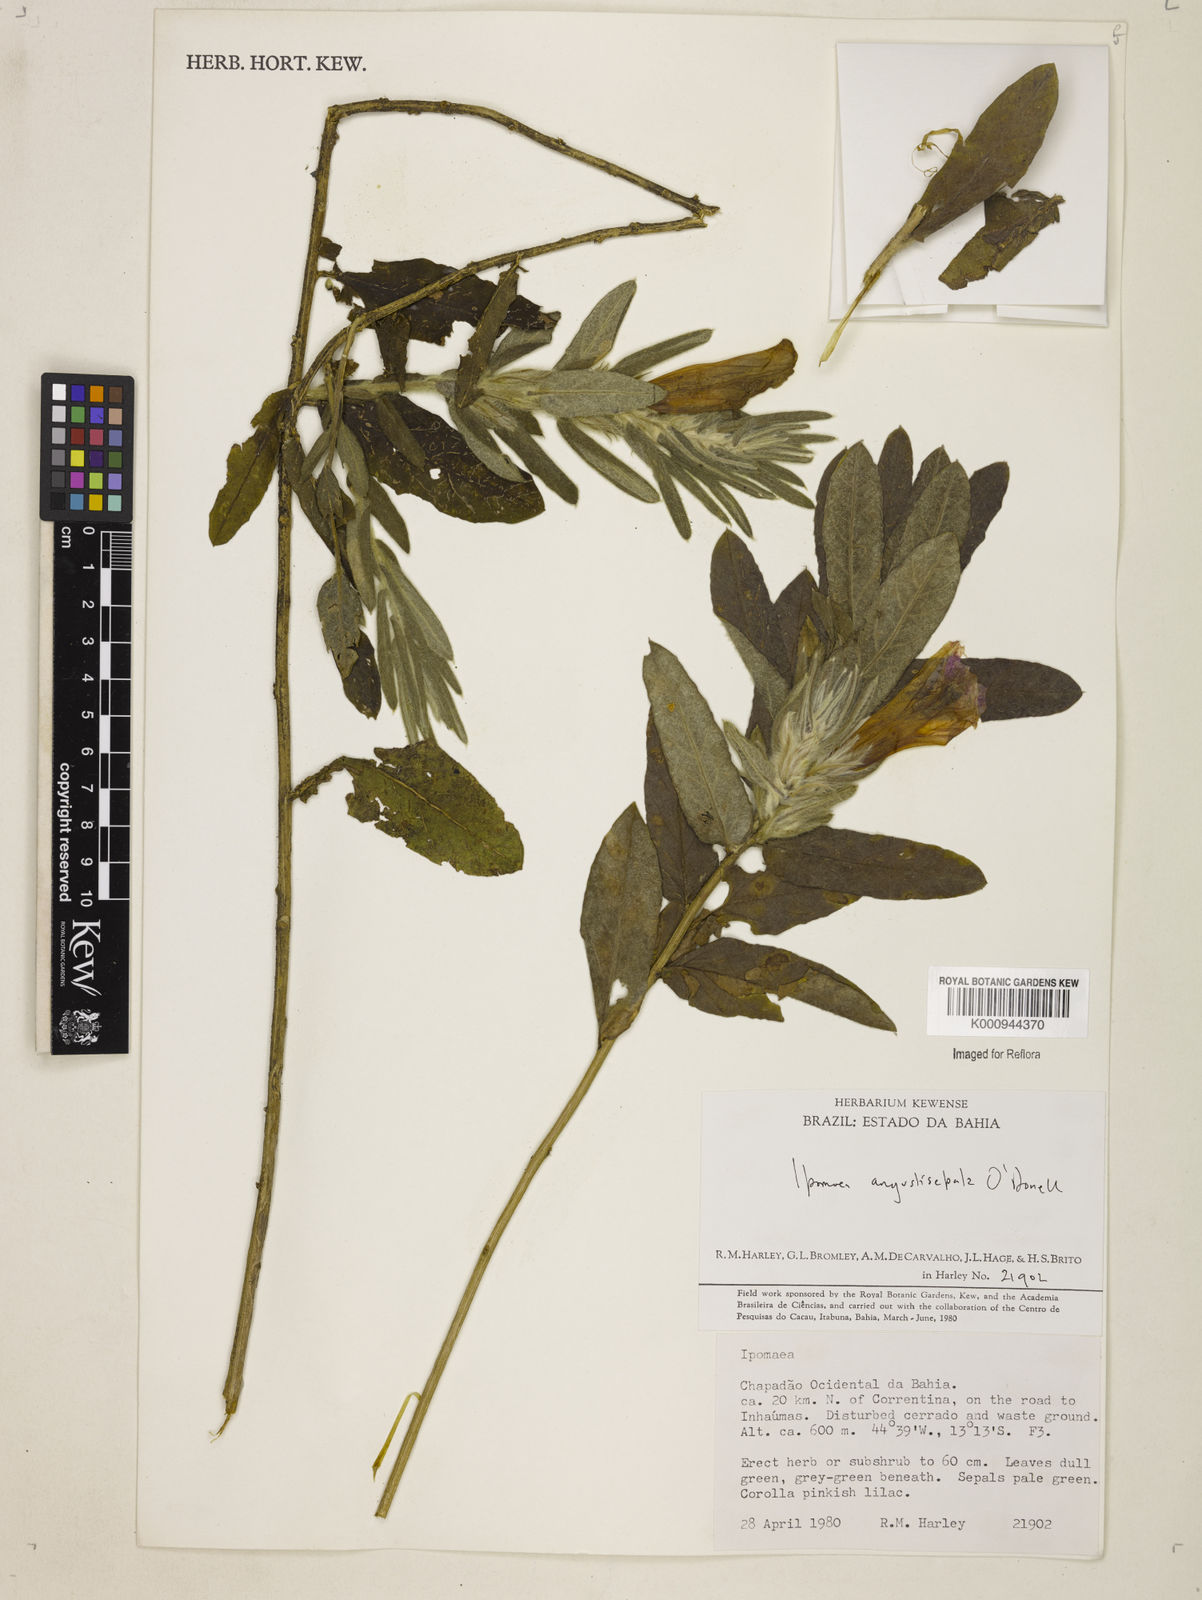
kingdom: Plantae
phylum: Tracheophyta
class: Magnoliopsida
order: Solanales
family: Convolvulaceae
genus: Ipomoea
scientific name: Ipomoea
